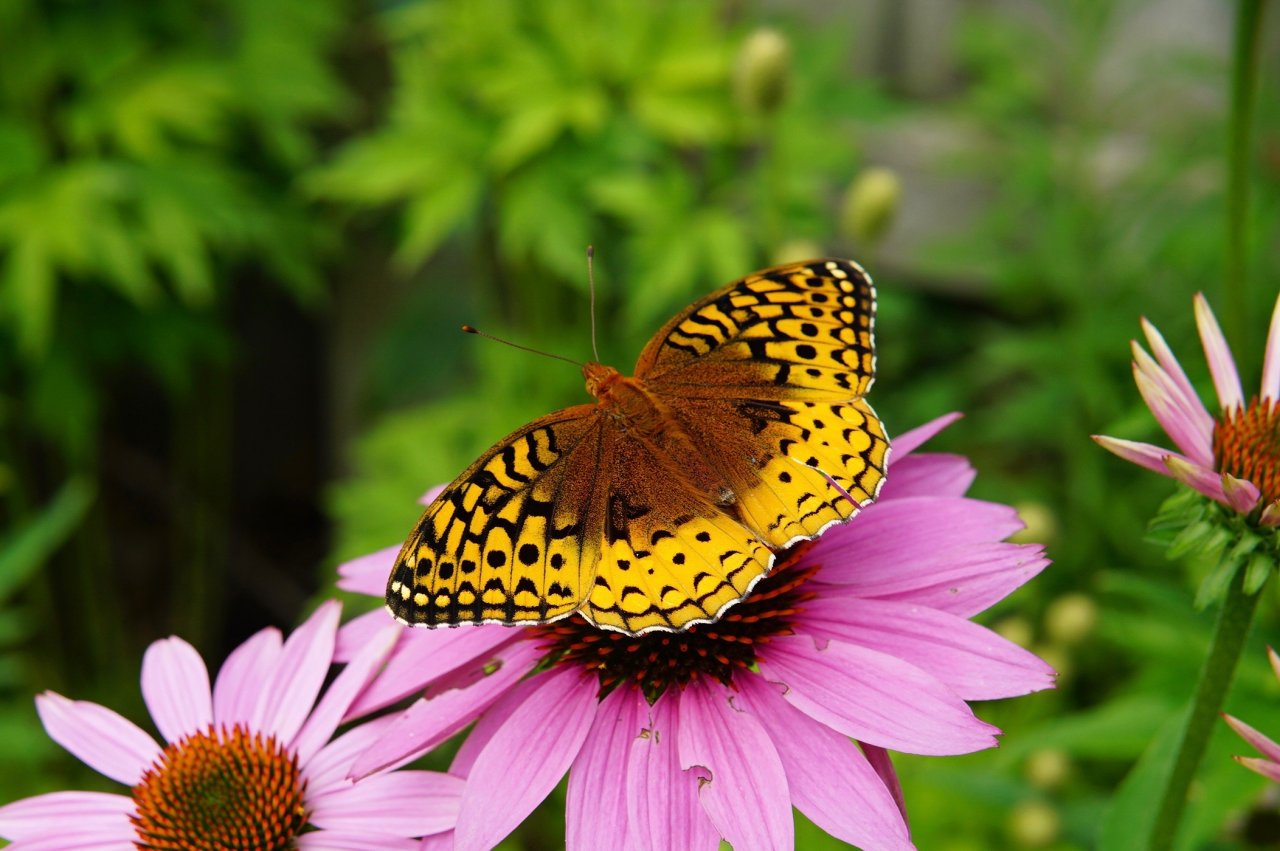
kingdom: Animalia
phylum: Arthropoda
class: Insecta
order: Lepidoptera
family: Nymphalidae
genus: Speyeria
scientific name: Speyeria cybele
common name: Great Spangled Fritillary
